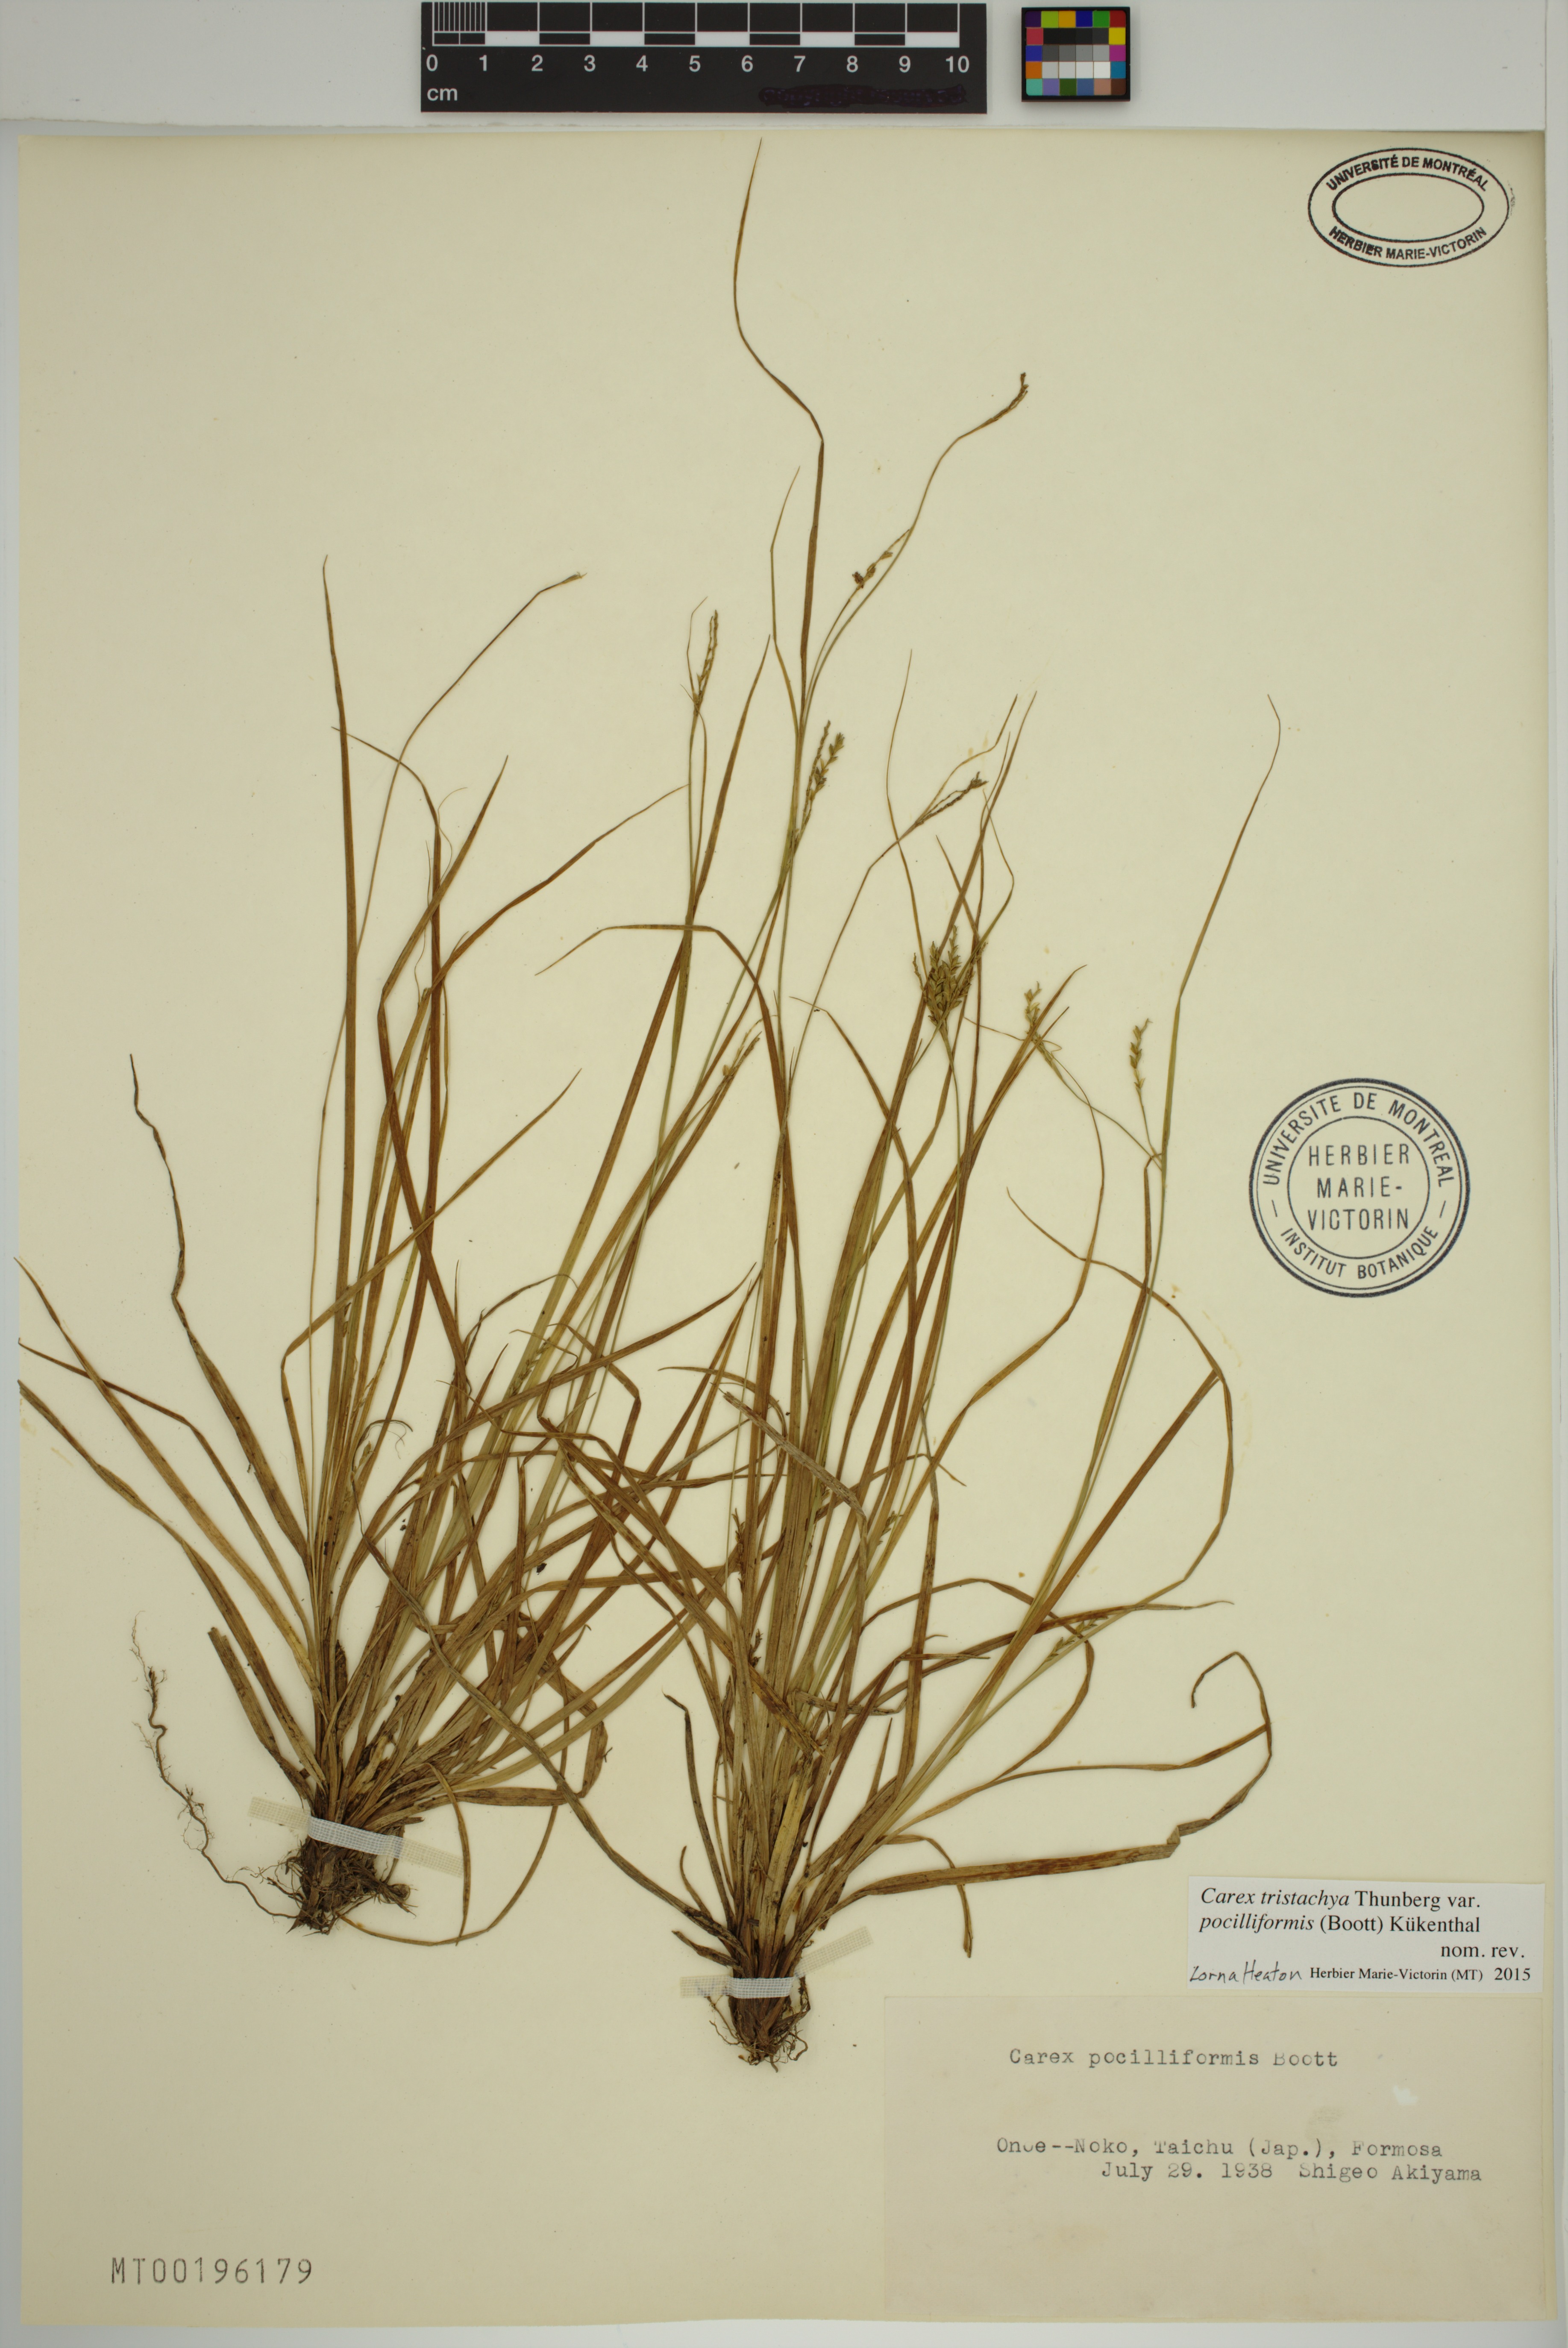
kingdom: Plantae
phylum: Tracheophyta
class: Liliopsida
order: Poales
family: Cyperaceae
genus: Carex
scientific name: Carex tristachya
